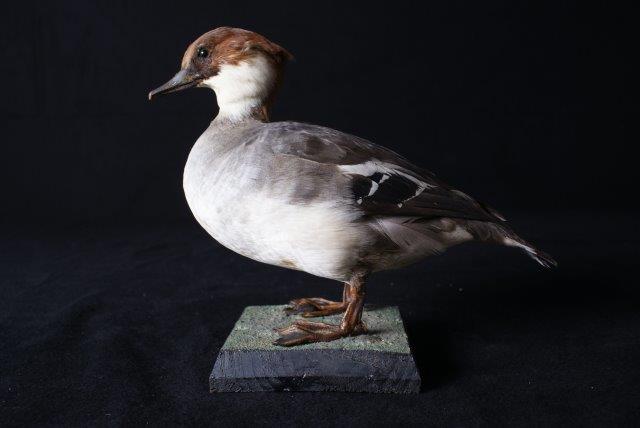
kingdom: Animalia
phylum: Chordata
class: Aves
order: Anseriformes
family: Anatidae
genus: Mergellus
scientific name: Mergellus albellus
